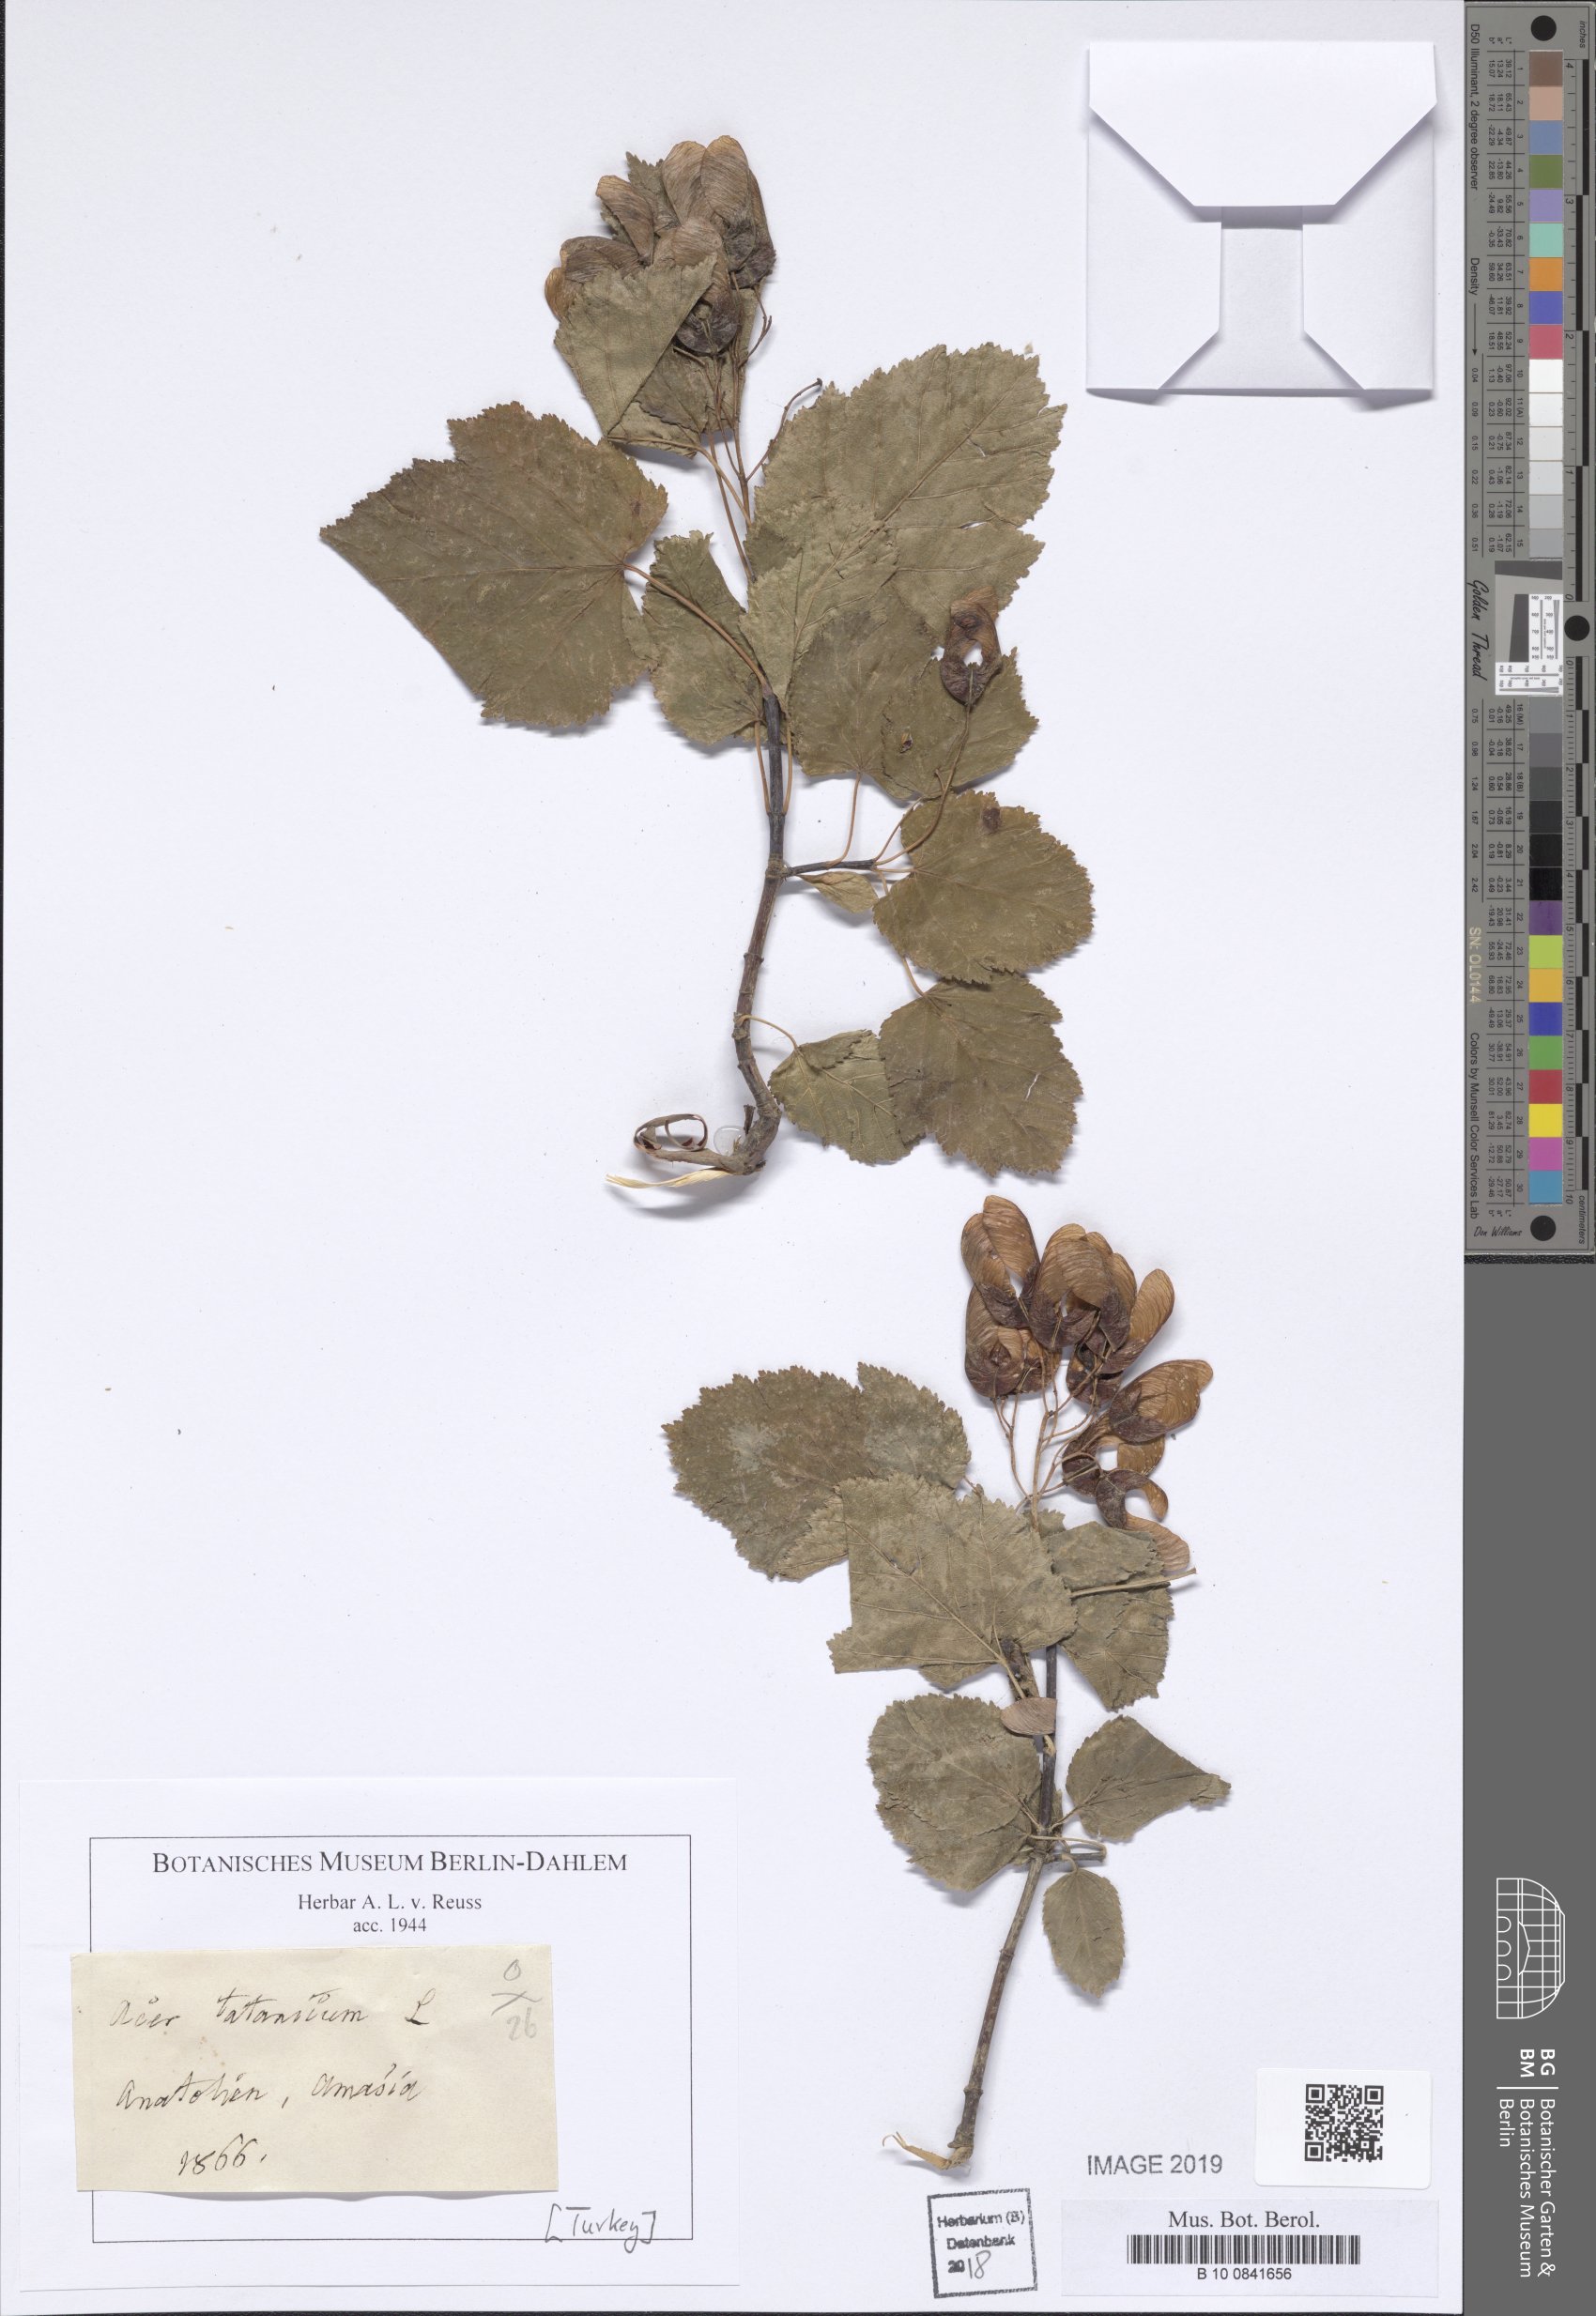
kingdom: Plantae
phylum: Tracheophyta
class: Magnoliopsida
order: Sapindales
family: Sapindaceae
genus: Acer
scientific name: Acer tataricum
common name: Tartar maple
